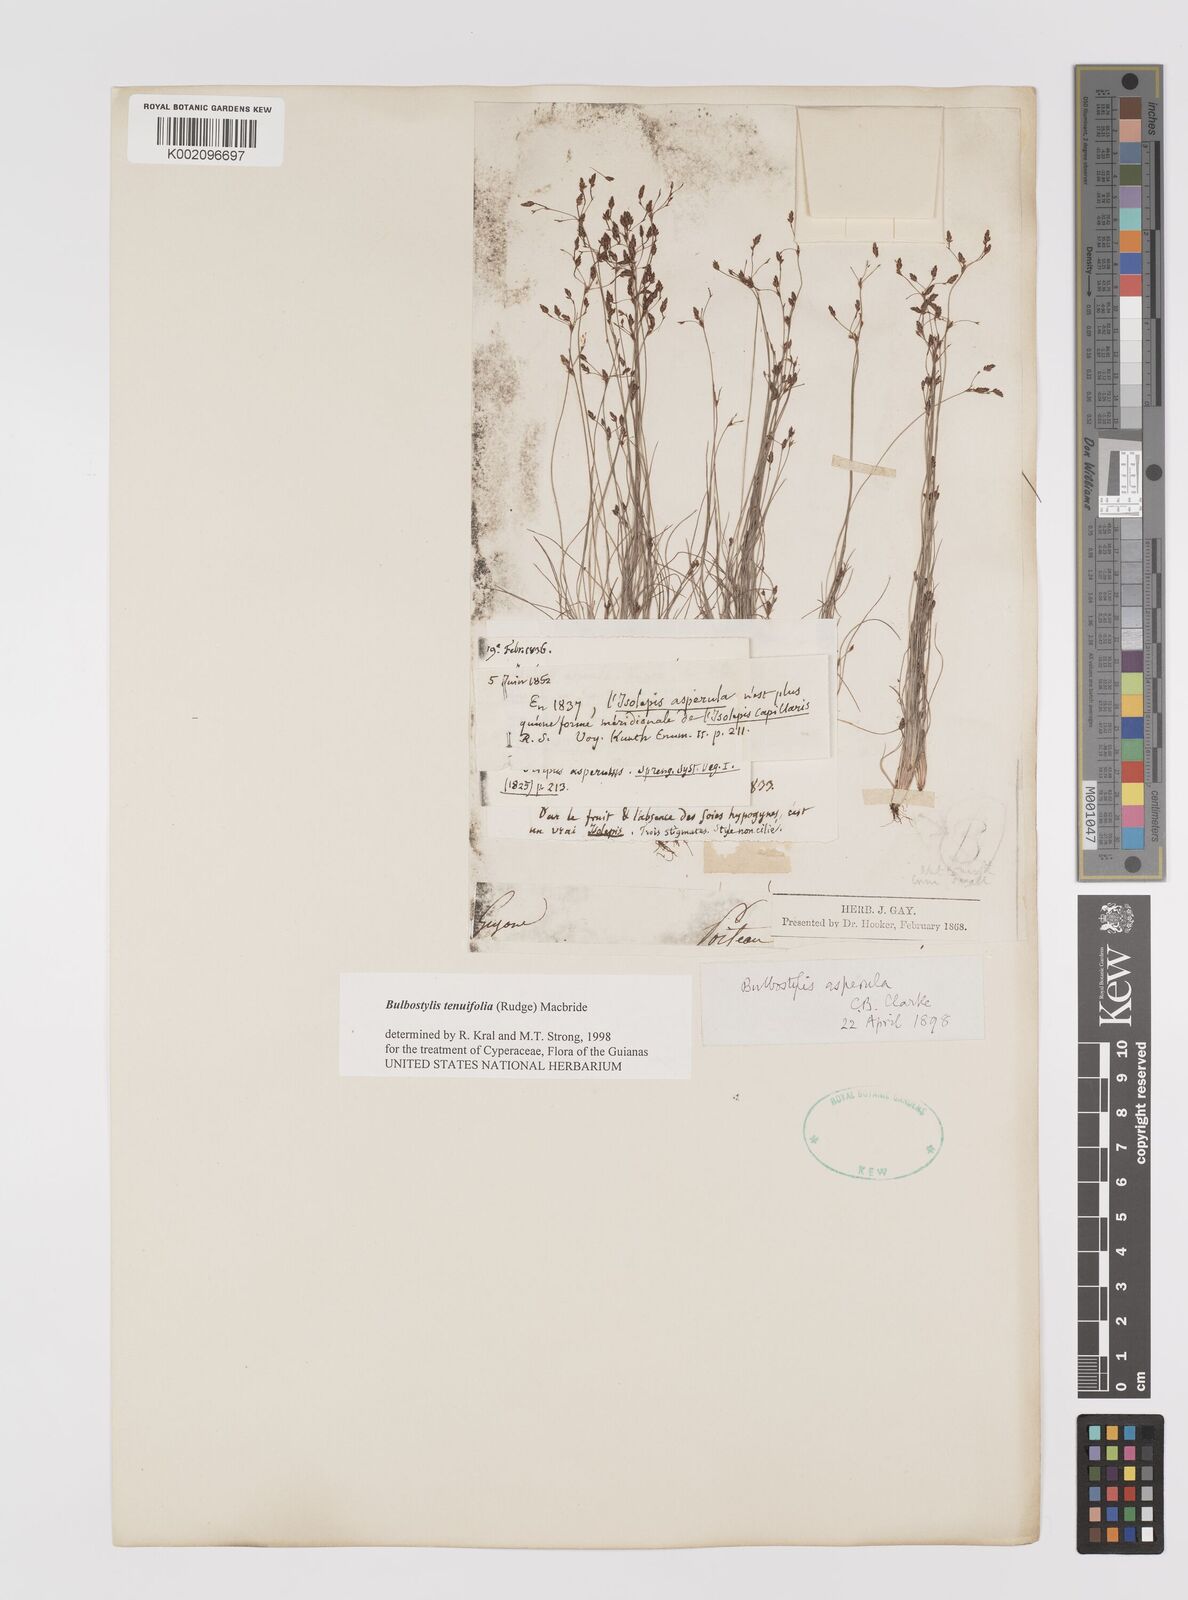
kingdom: Plantae
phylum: Tracheophyta
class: Liliopsida
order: Poales
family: Cyperaceae
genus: Bulbostylis
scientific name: Bulbostylis tenuifolia
